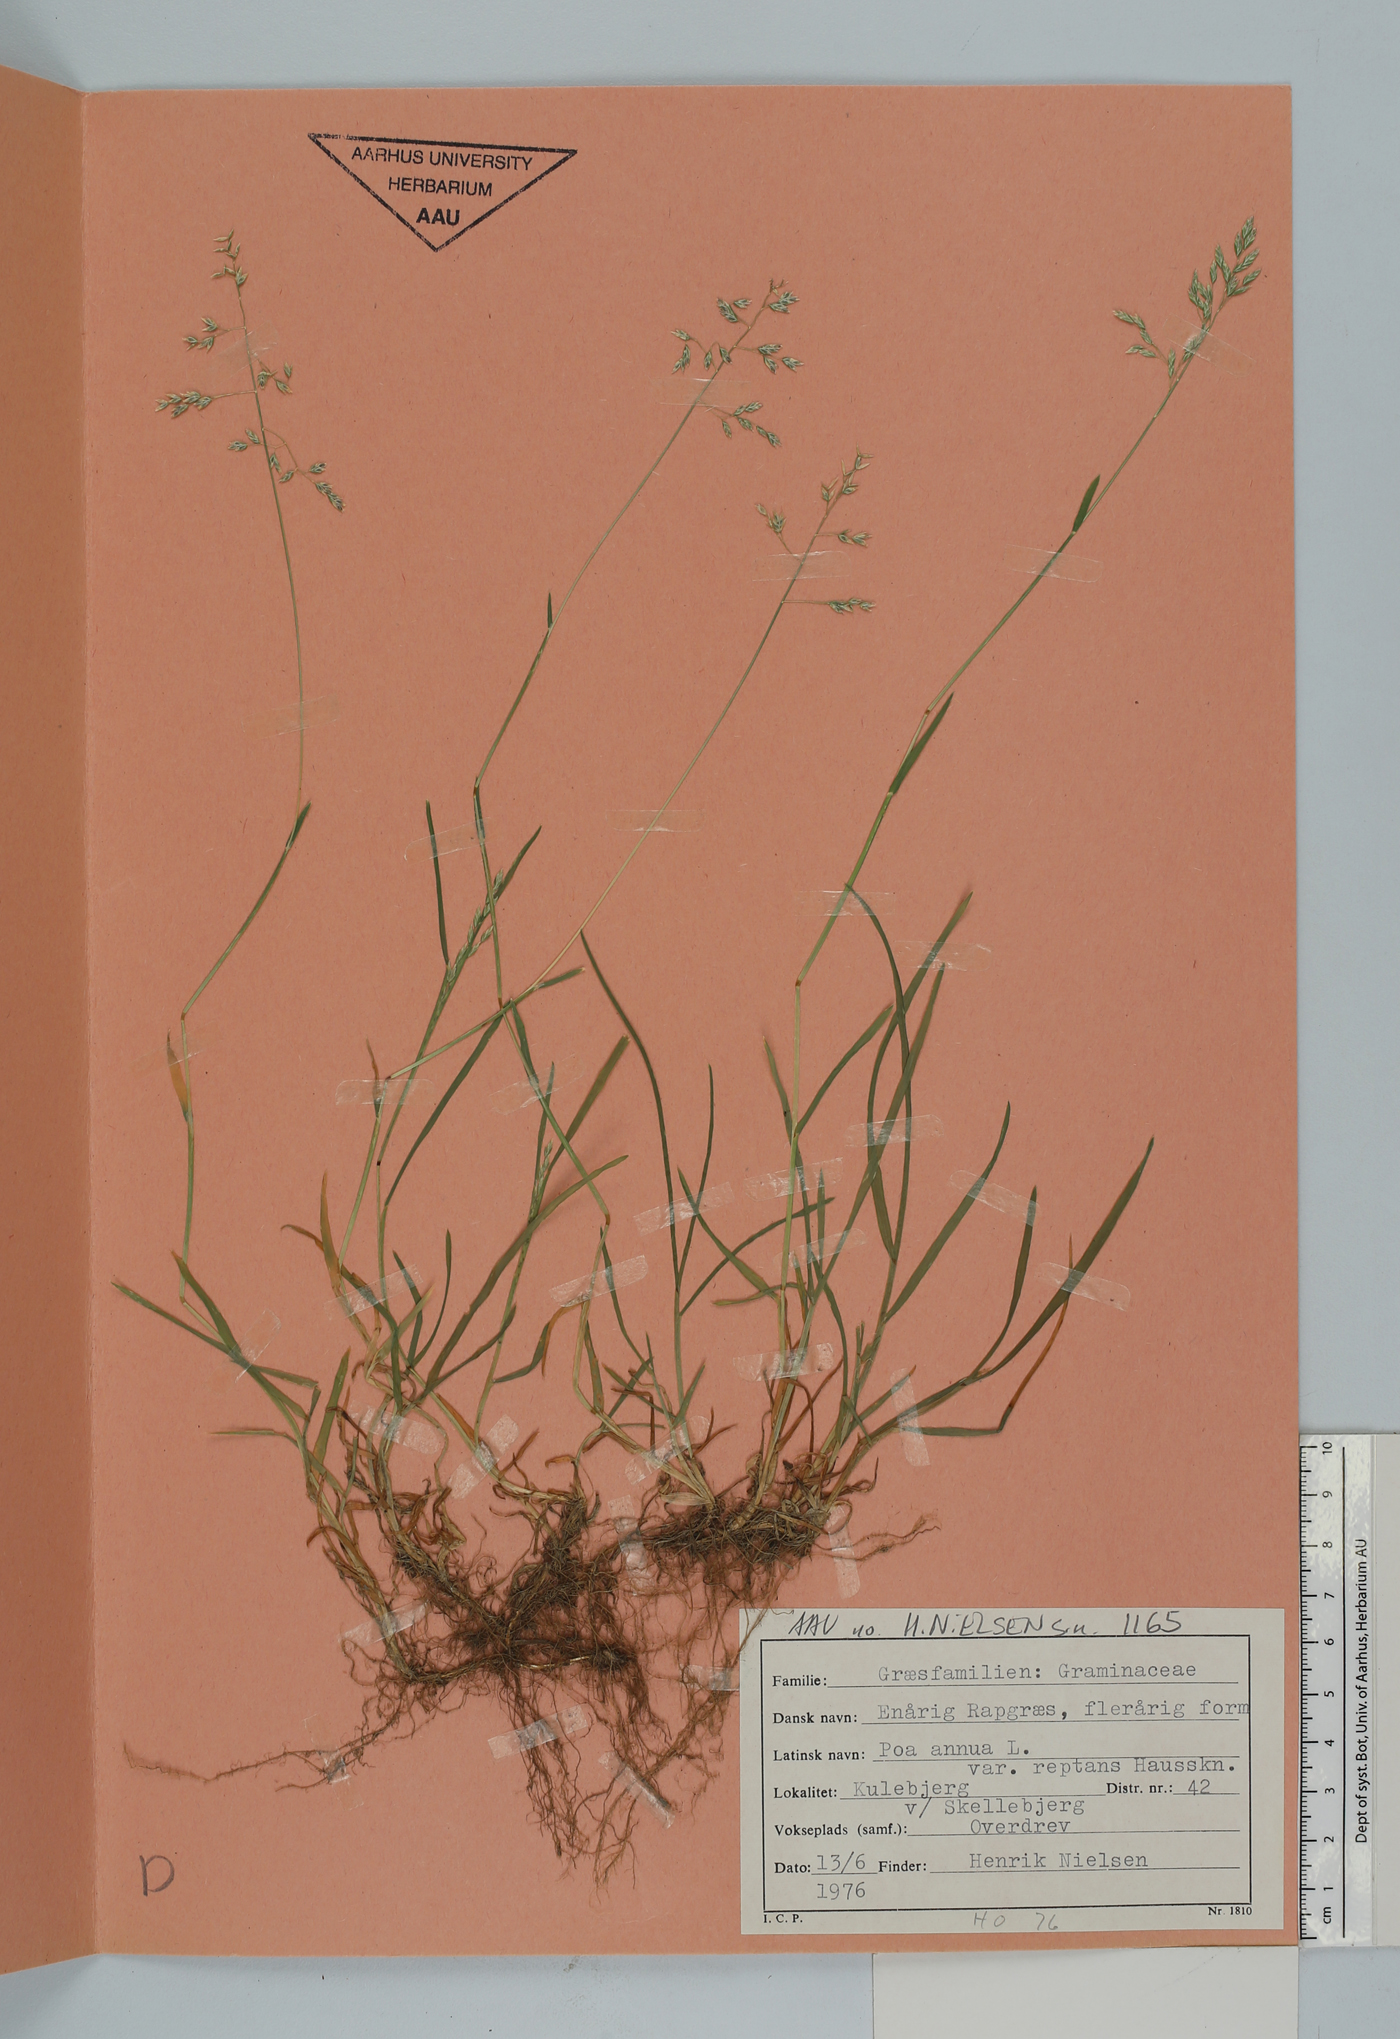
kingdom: Plantae
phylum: Tracheophyta
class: Liliopsida
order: Poales
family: Poaceae
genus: Poa
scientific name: Poa annua
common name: Annual bluegrass
